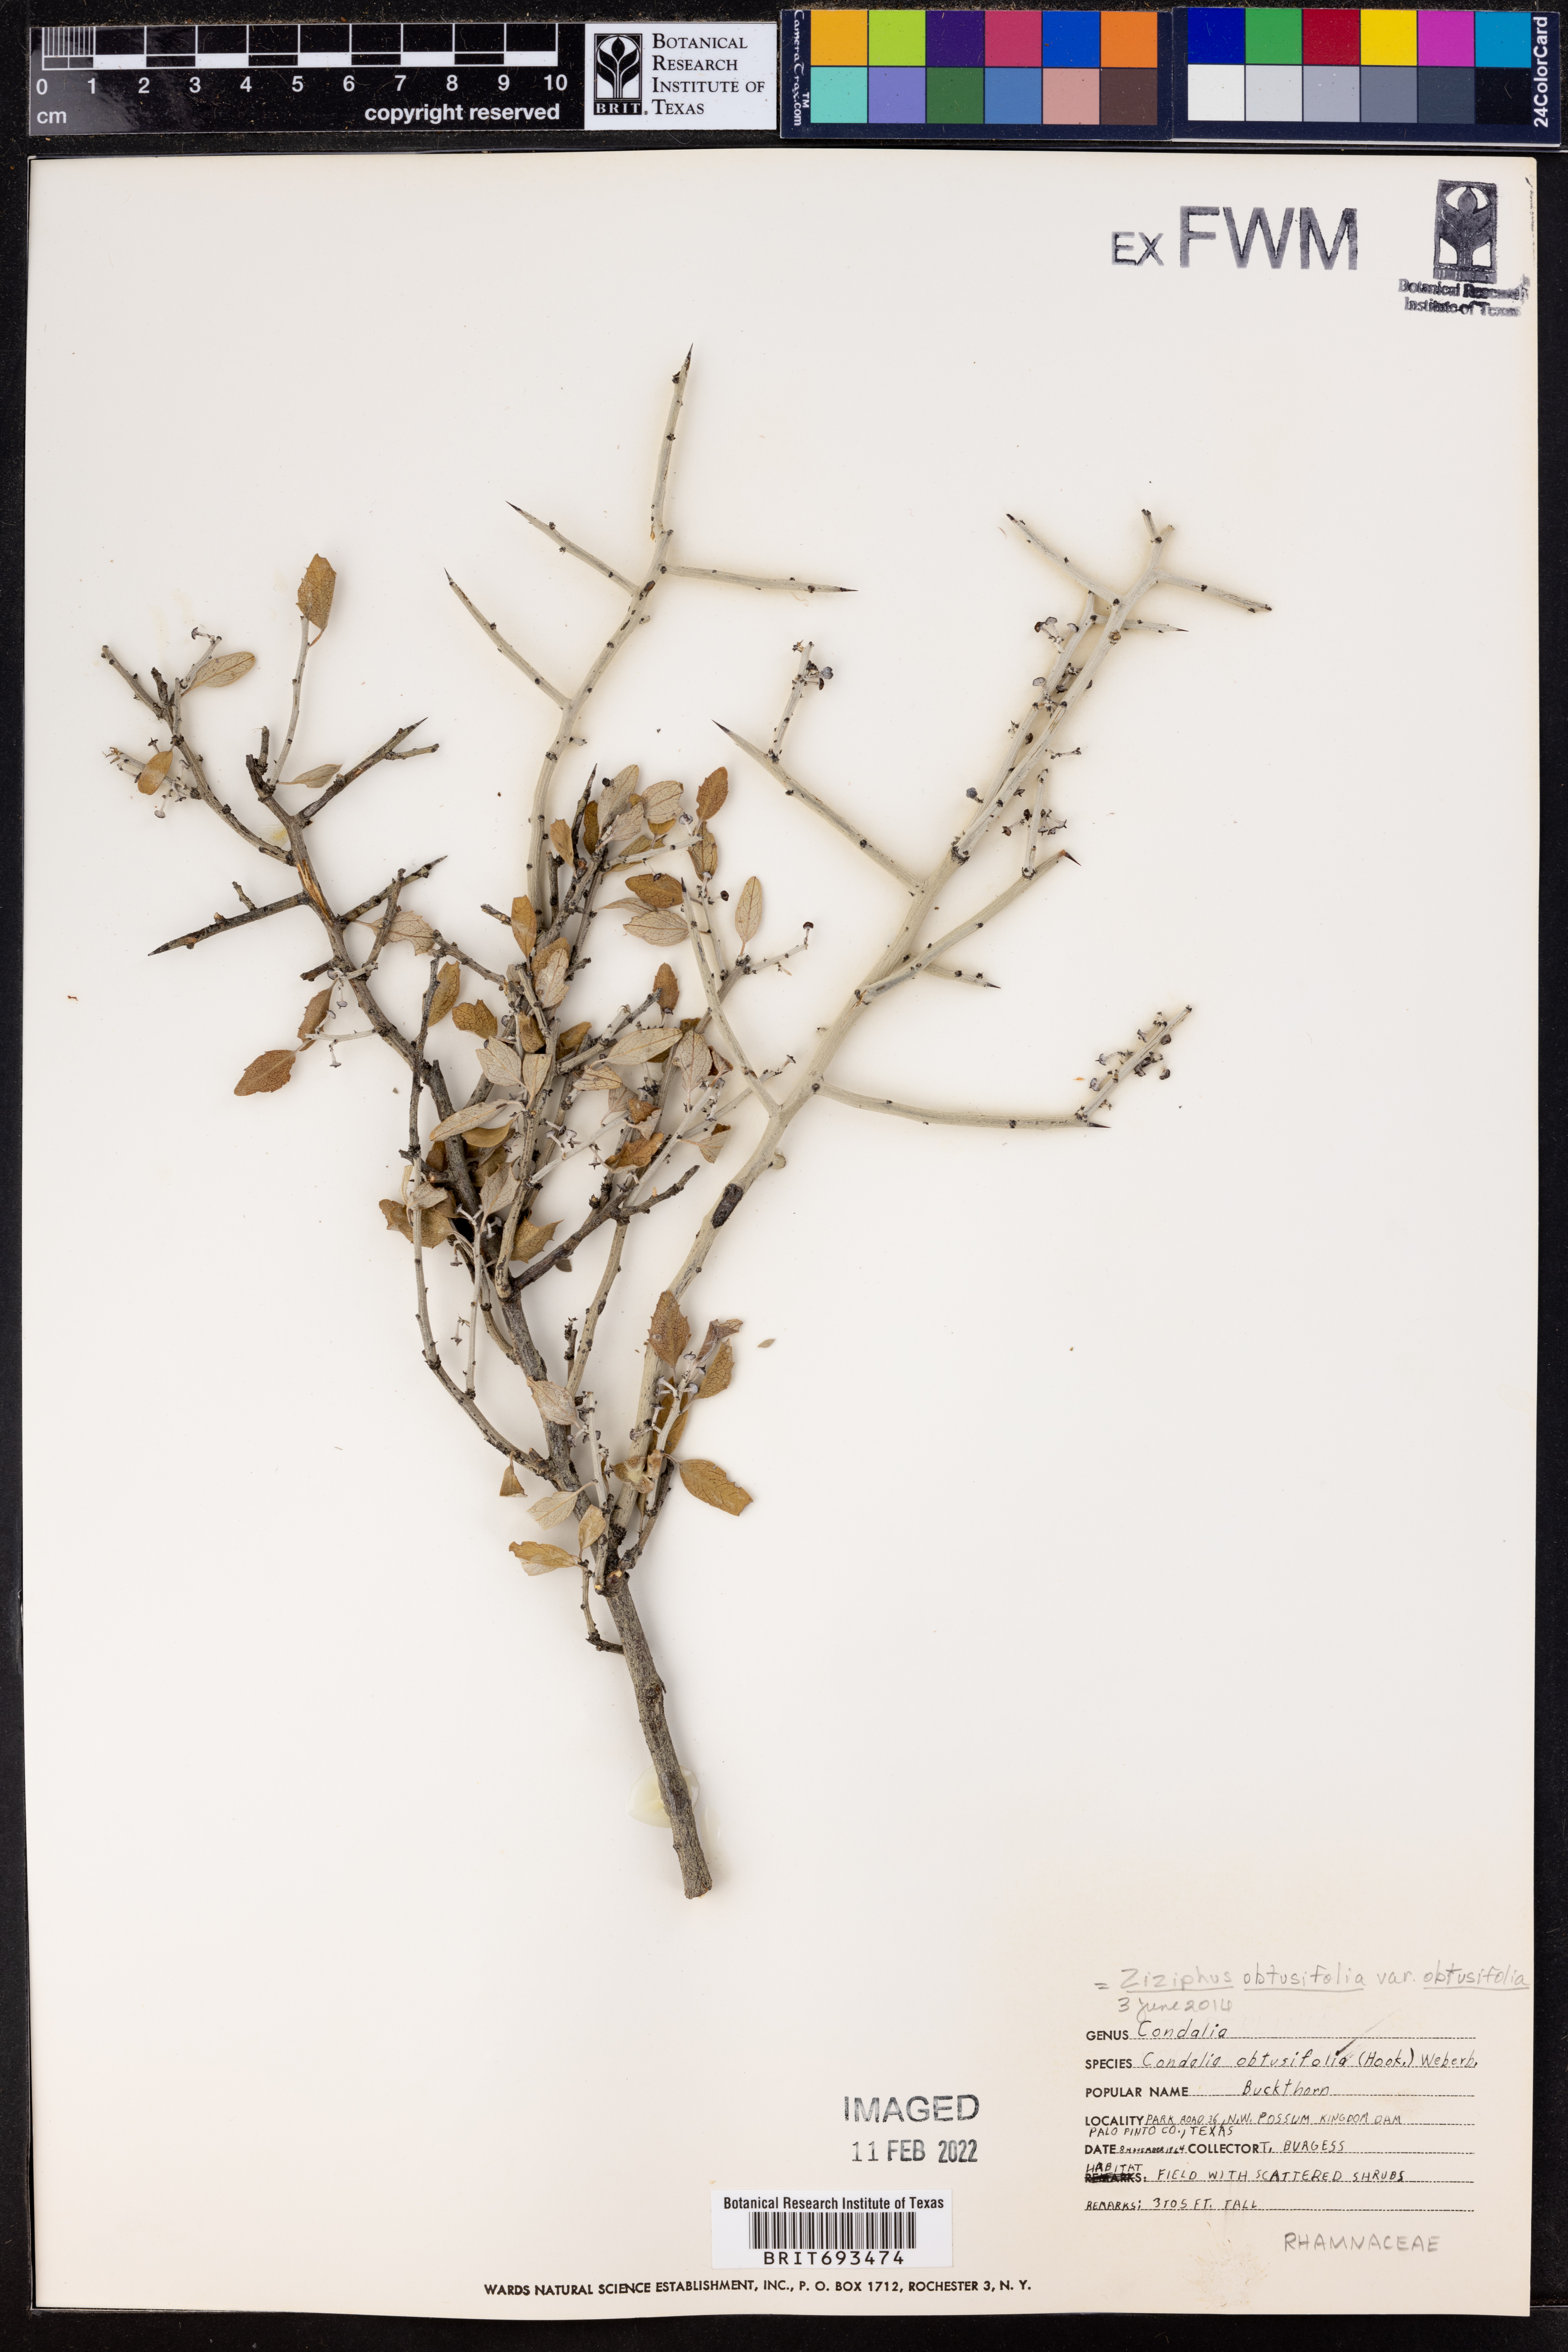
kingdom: Plantae
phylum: Tracheophyta
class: Magnoliopsida
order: Rosales
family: Rhamnaceae
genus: Sarcomphalus
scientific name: Sarcomphalus obtusifolius
